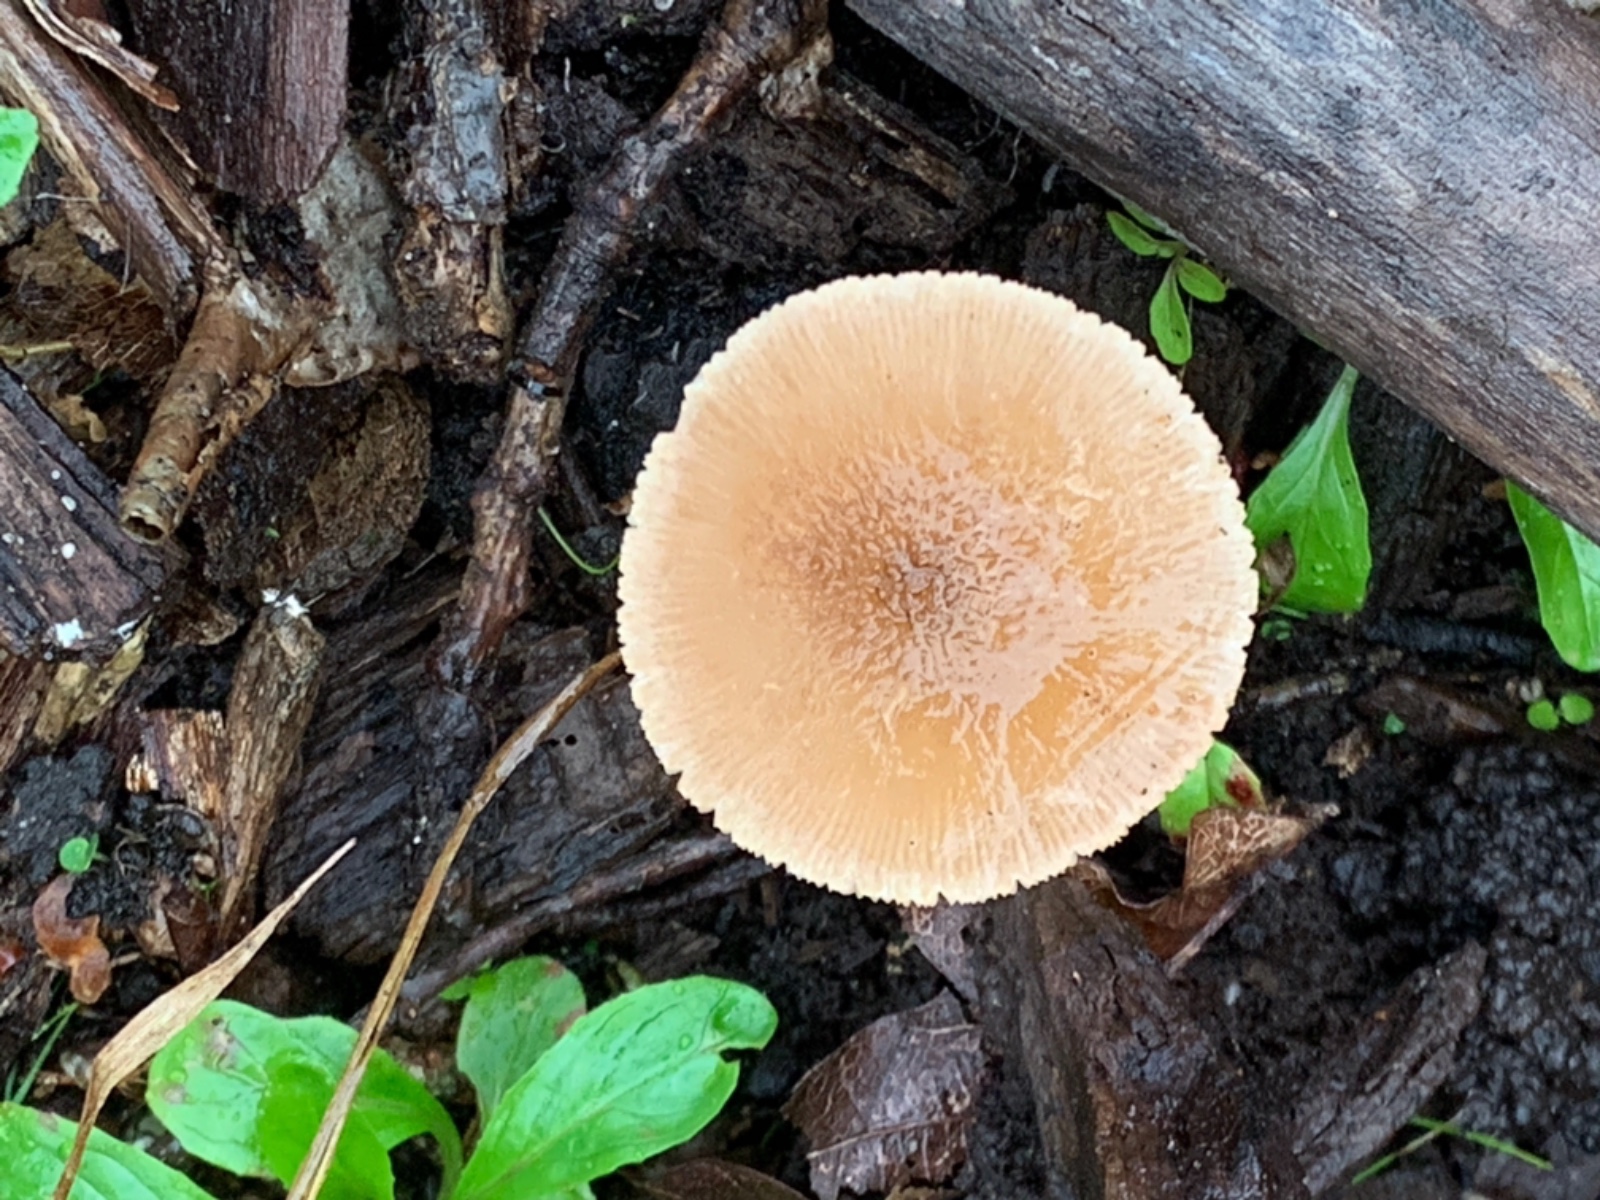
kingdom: Fungi
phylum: Basidiomycota
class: Agaricomycetes
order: Agaricales
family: Pluteaceae
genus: Pluteus
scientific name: Pluteus phlebophorus
